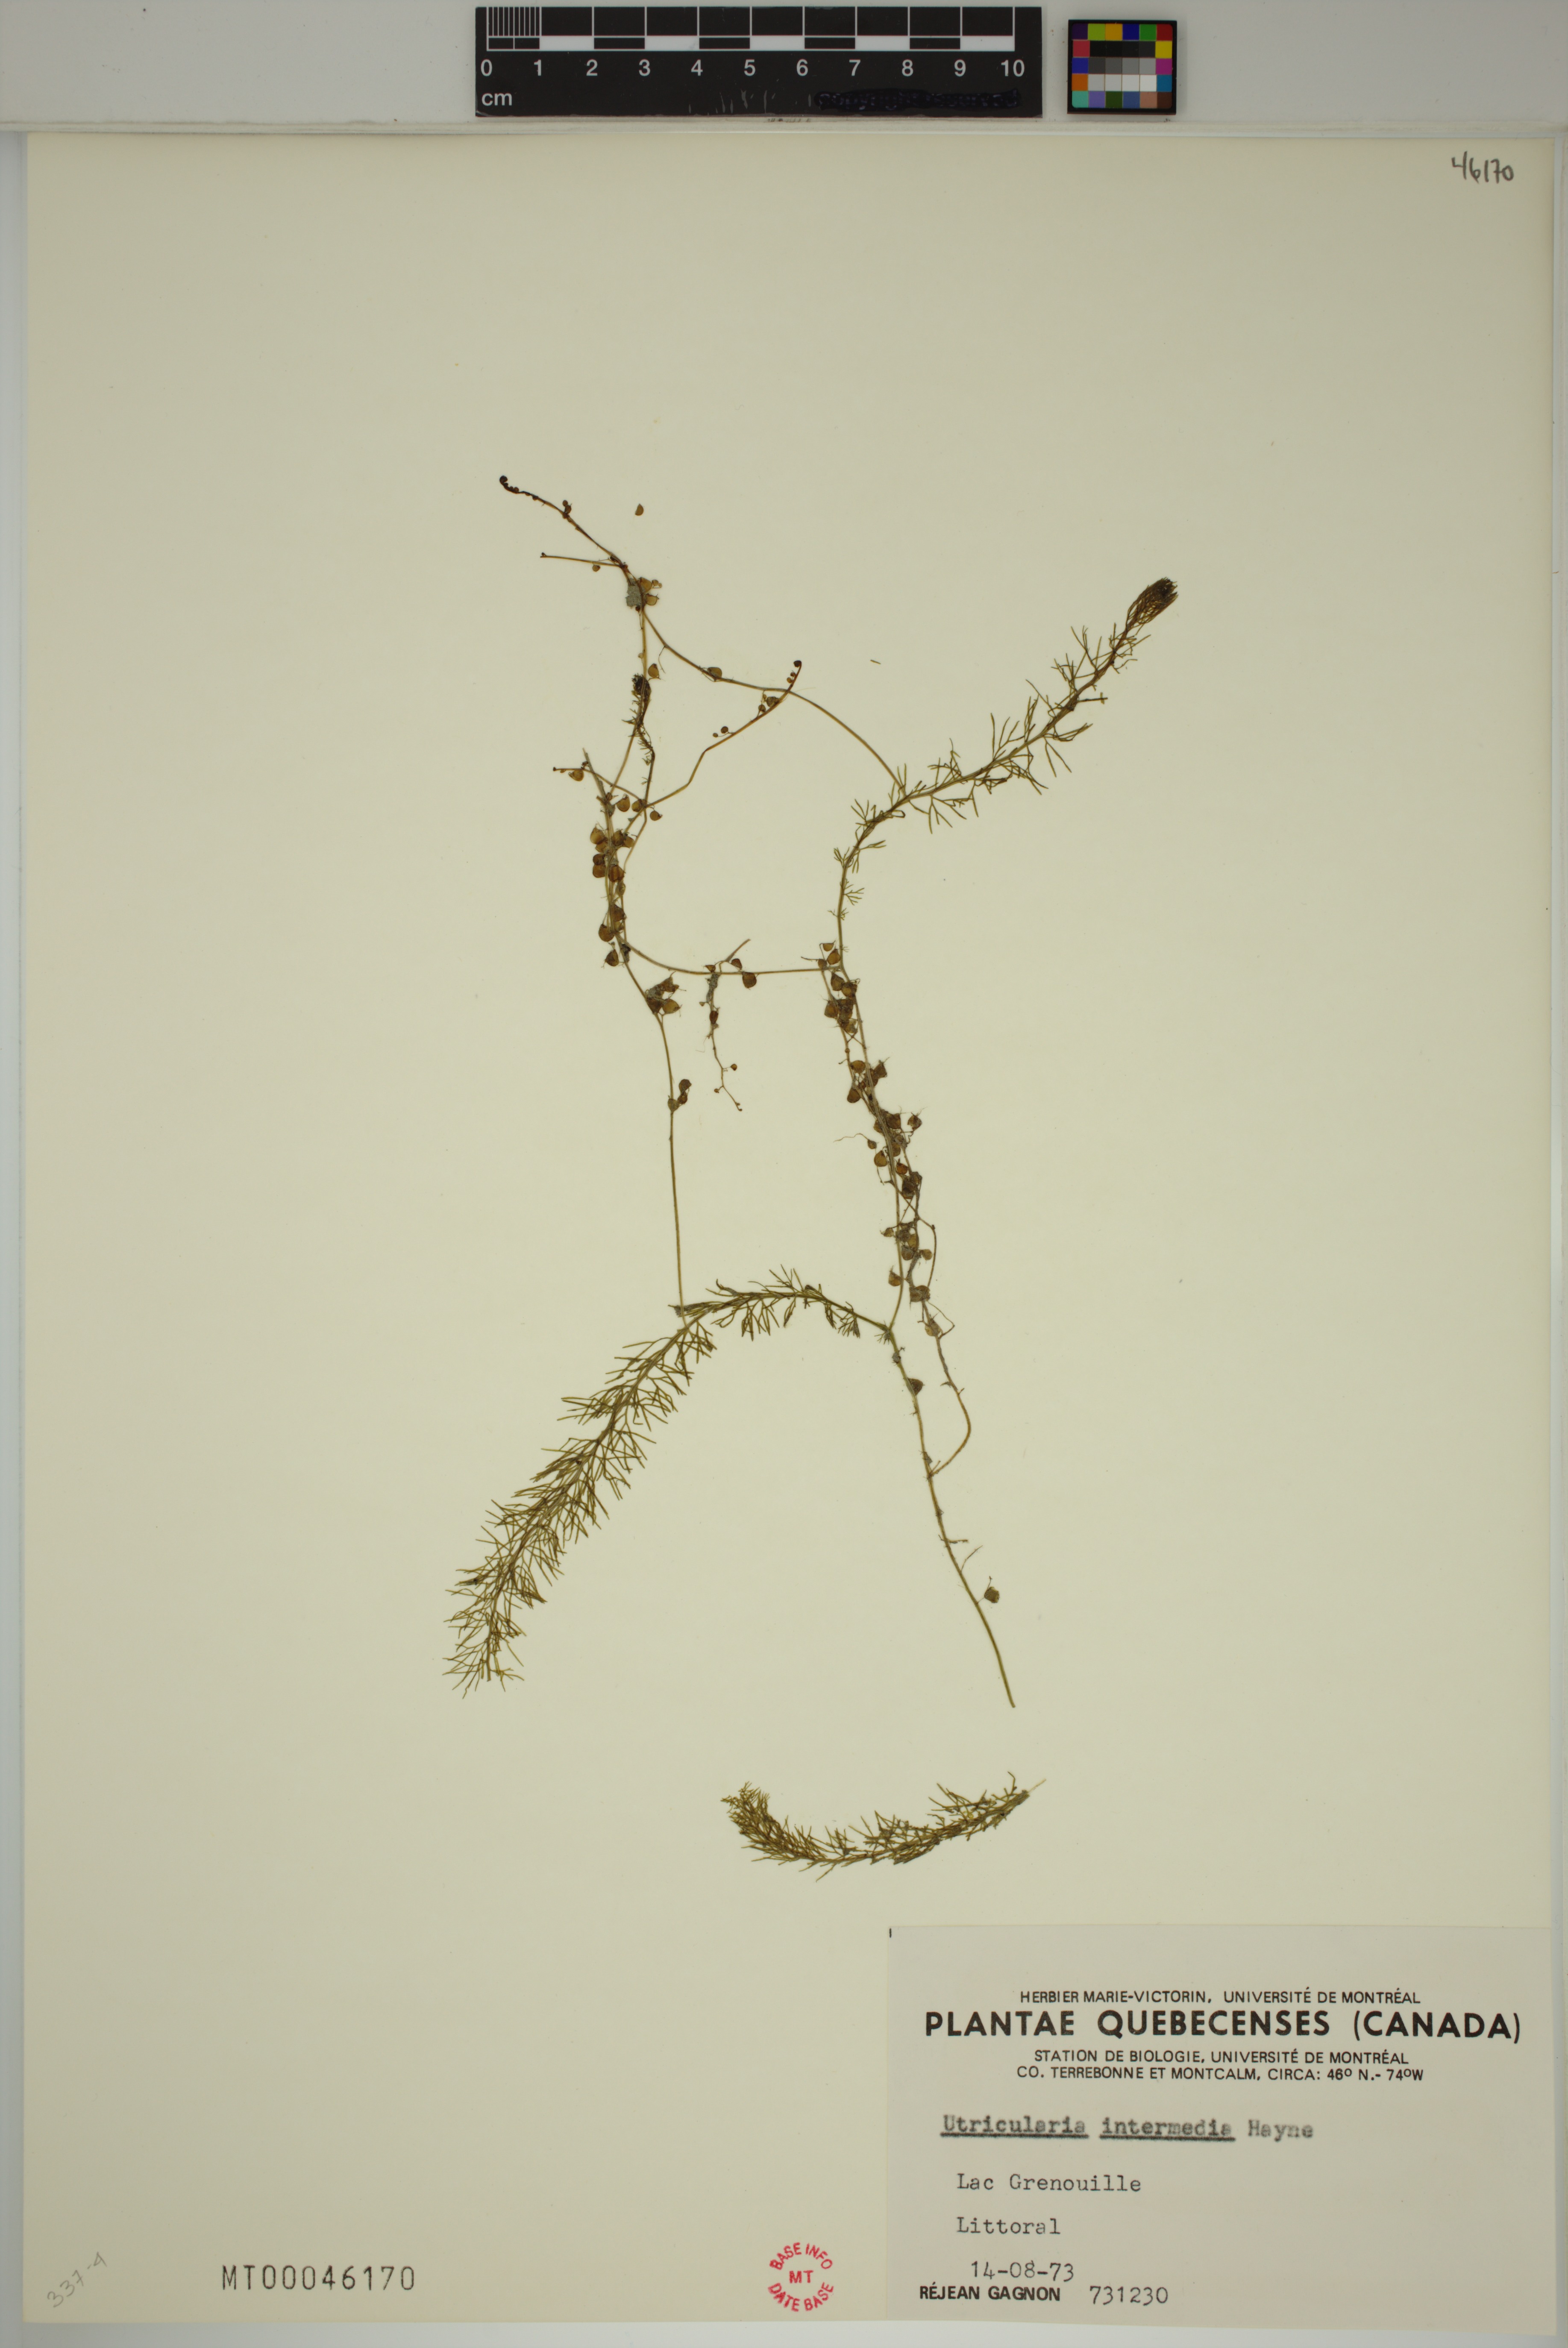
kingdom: Plantae
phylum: Tracheophyta
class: Magnoliopsida
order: Lamiales
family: Lentibulariaceae
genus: Utricularia
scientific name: Utricularia intermedia
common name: Intermediate bladderwort
